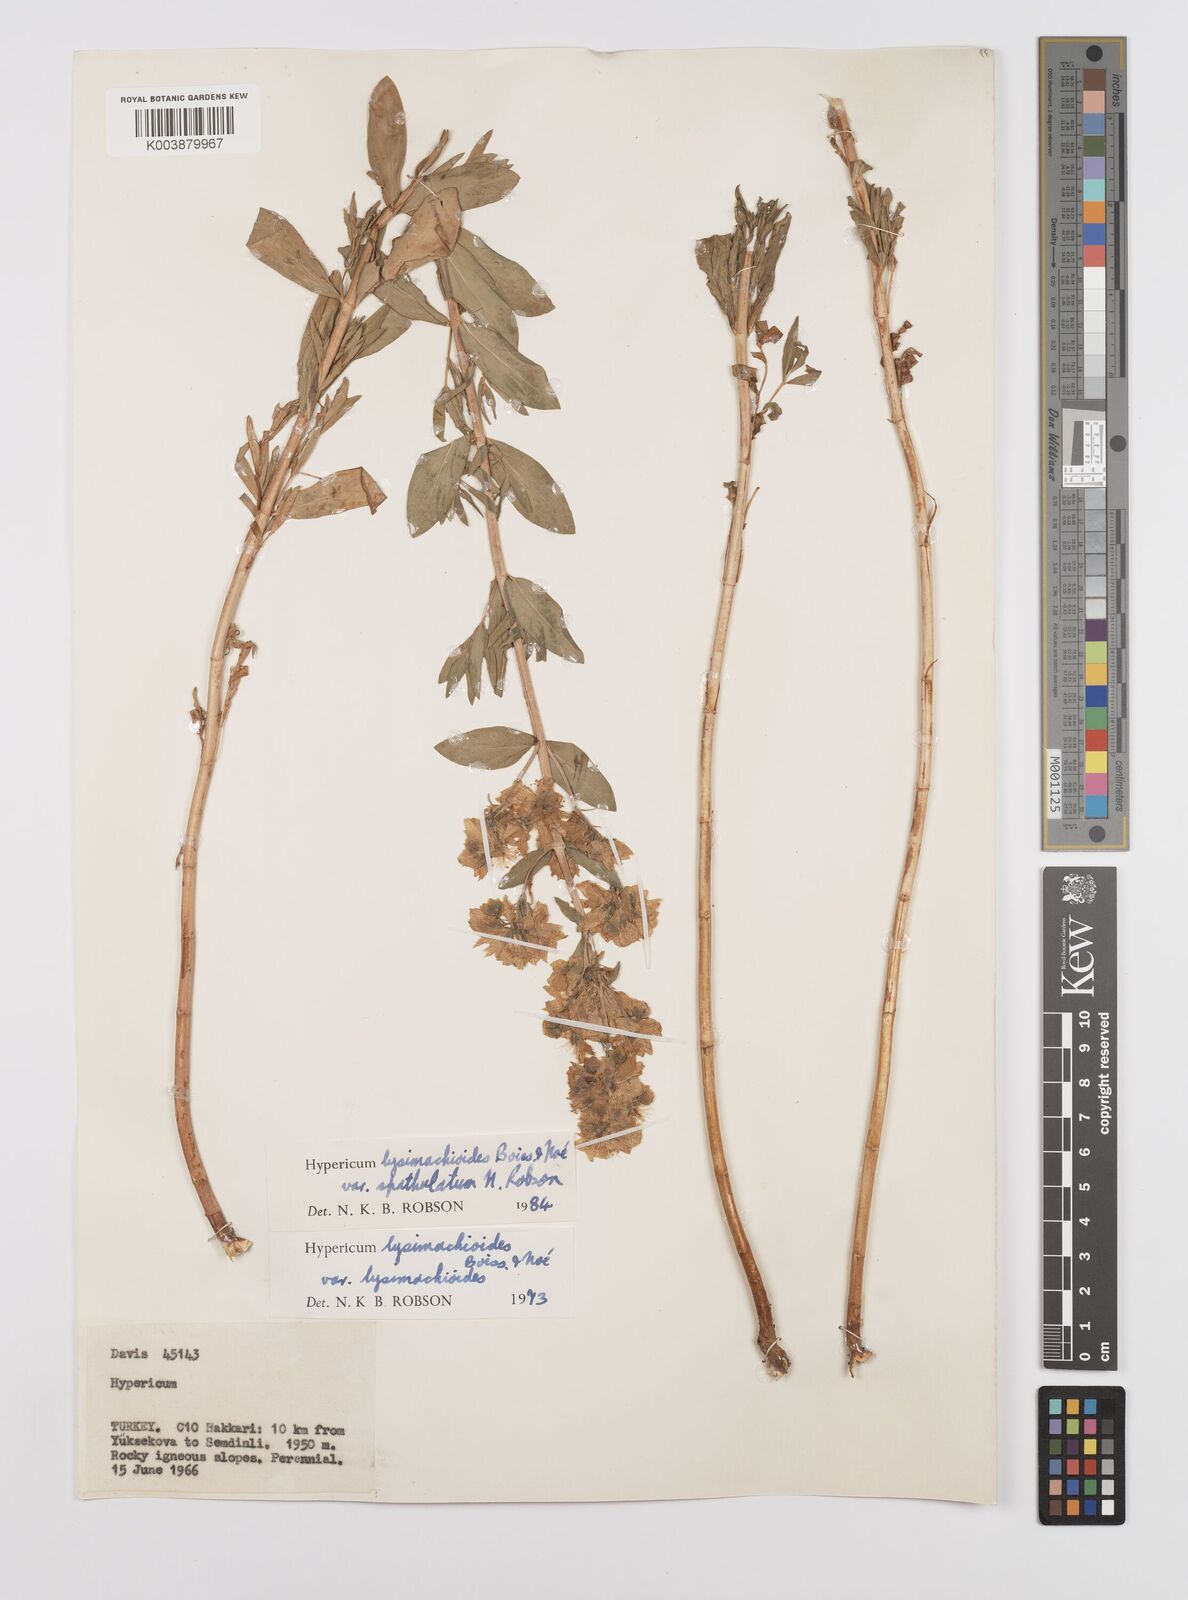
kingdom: Plantae
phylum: Tracheophyta
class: Magnoliopsida
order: Malpighiales
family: Hypericaceae
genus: Hypericum
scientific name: Hypericum lysimachioides
